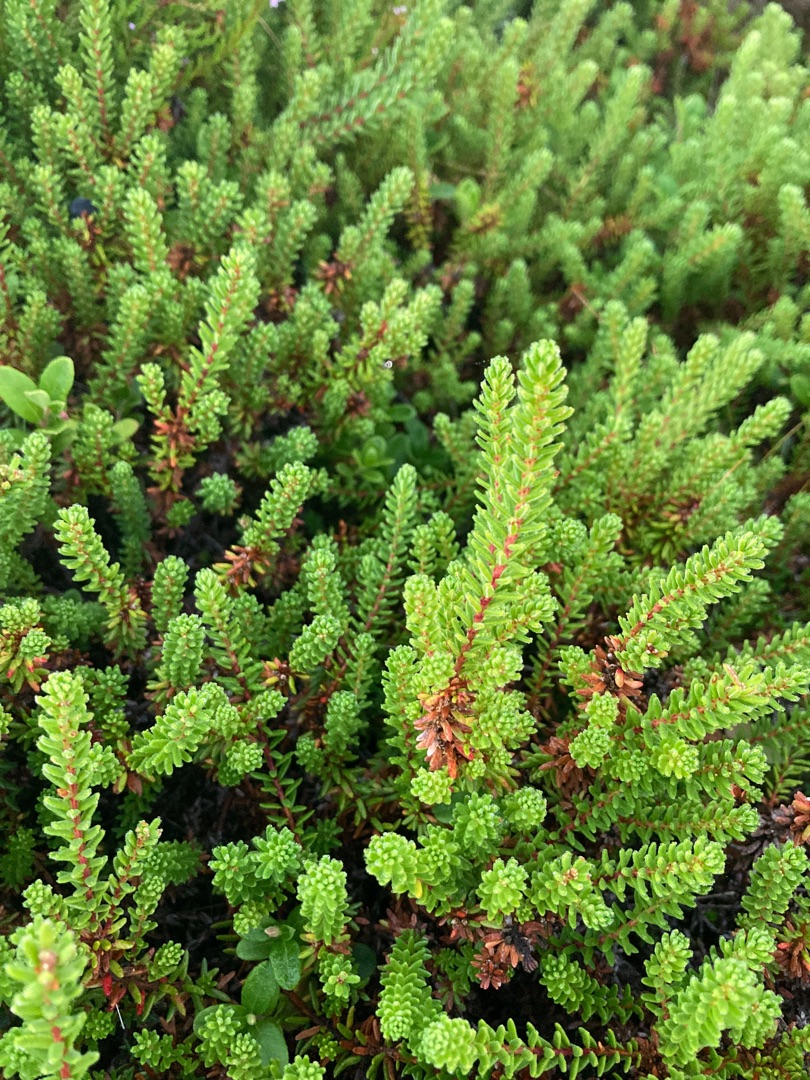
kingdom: Plantae
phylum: Tracheophyta
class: Magnoliopsida
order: Ericales
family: Ericaceae
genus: Empetrum
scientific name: Empetrum nigrum
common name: Revling
